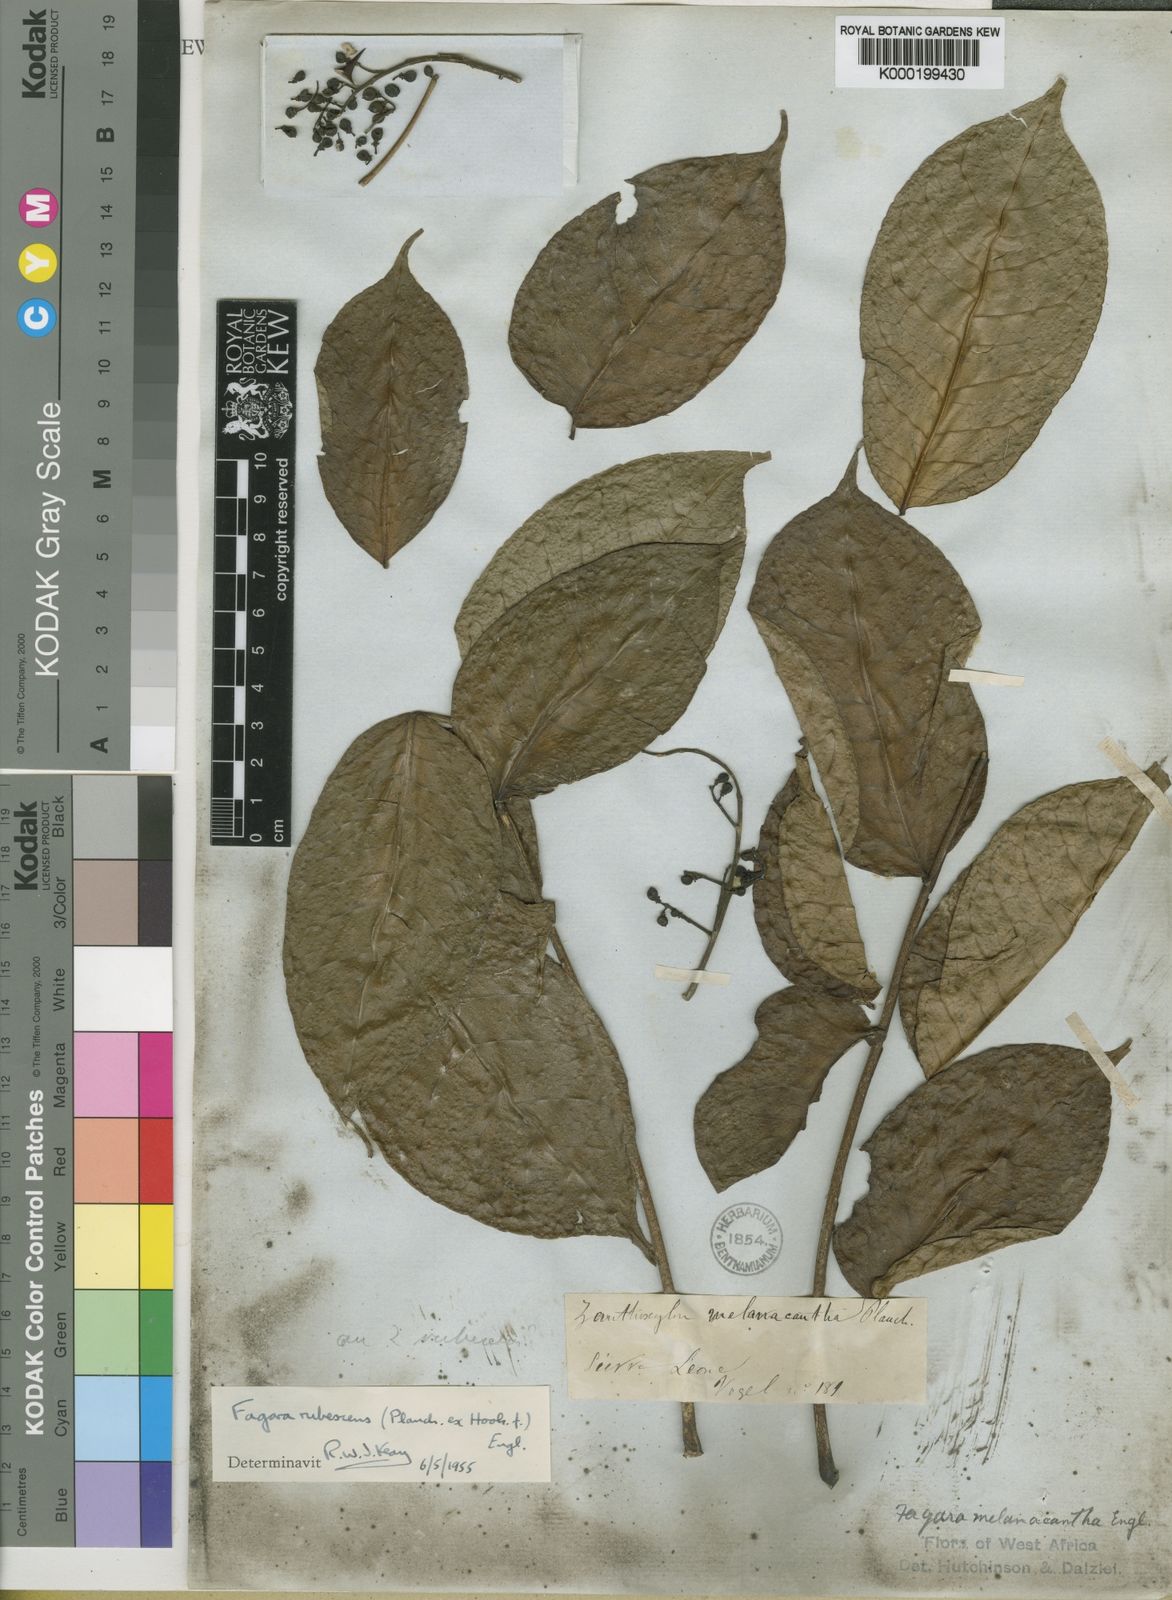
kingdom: Plantae
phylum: Tracheophyta
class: Magnoliopsida
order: Sapindales
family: Rutaceae
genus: Zanthoxylum
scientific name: Zanthoxylum rubescens
